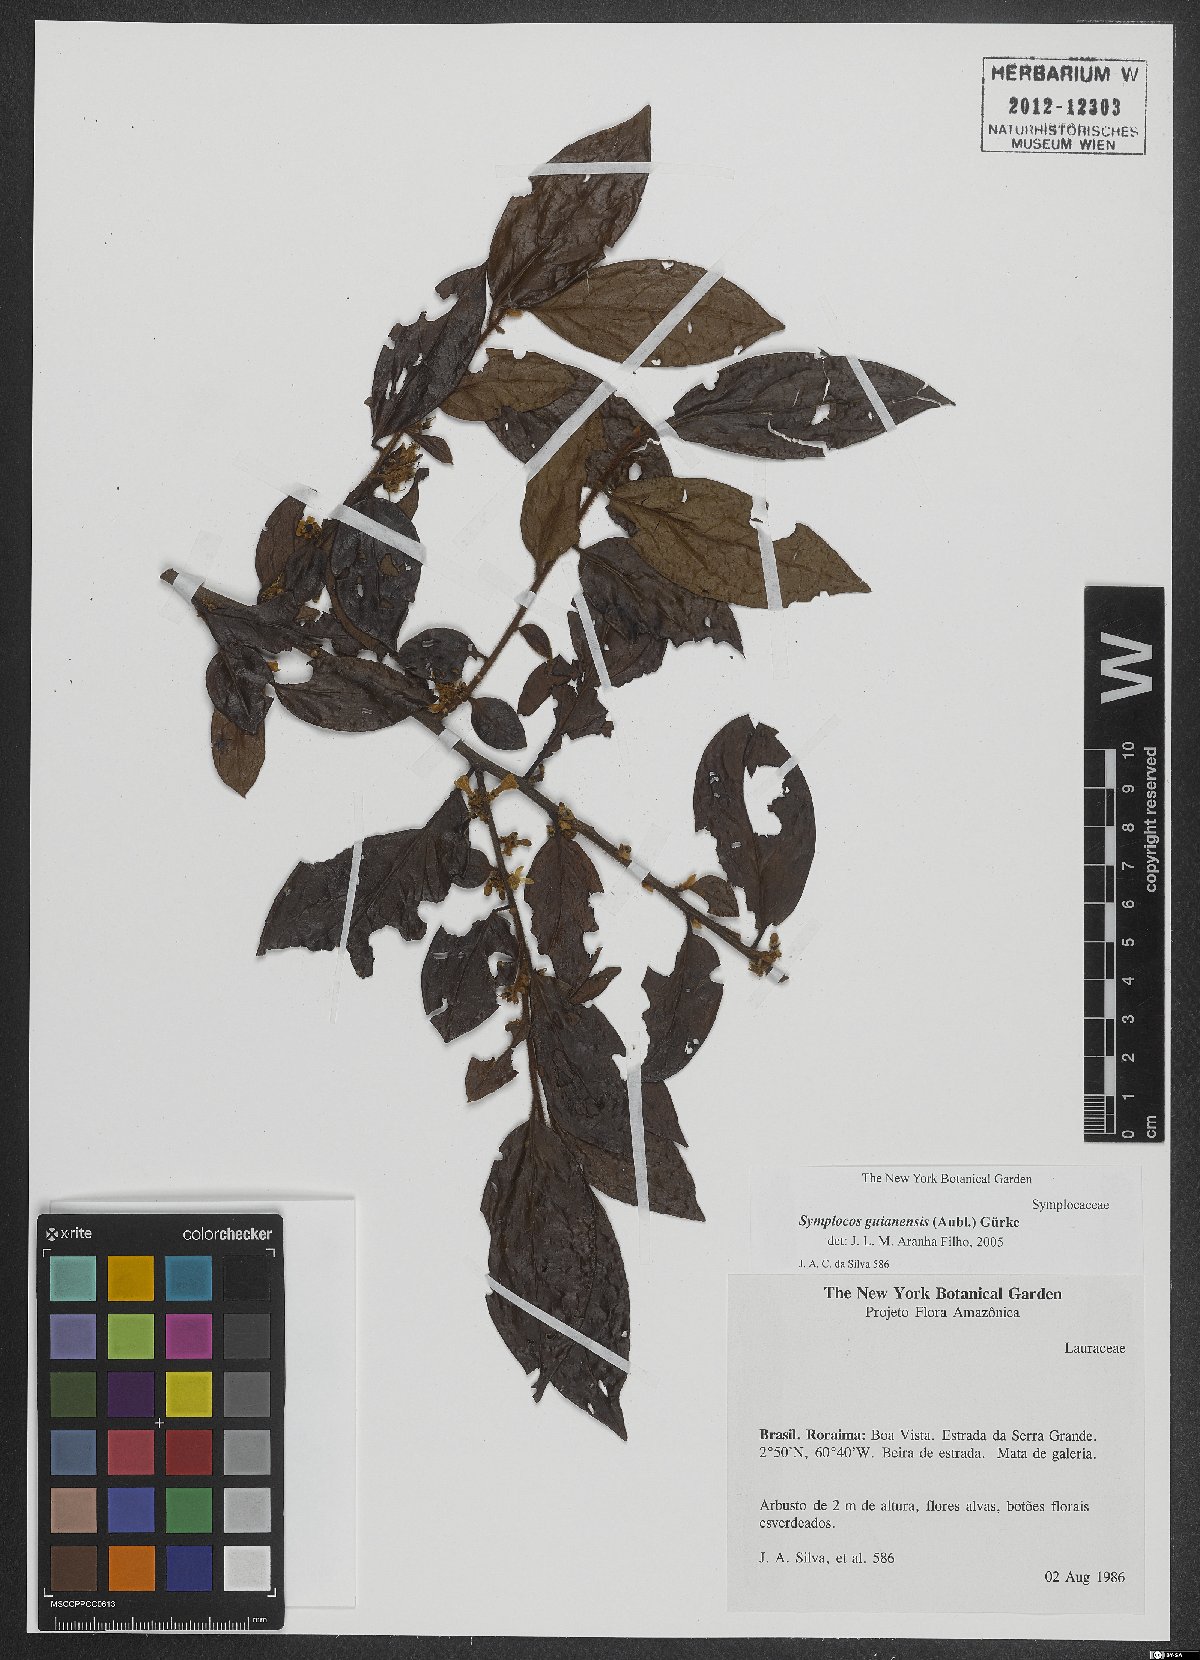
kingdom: Plantae
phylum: Tracheophyta
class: Magnoliopsida
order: Ericales
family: Symplocaceae
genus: Symplocos
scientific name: Symplocos guianensis
